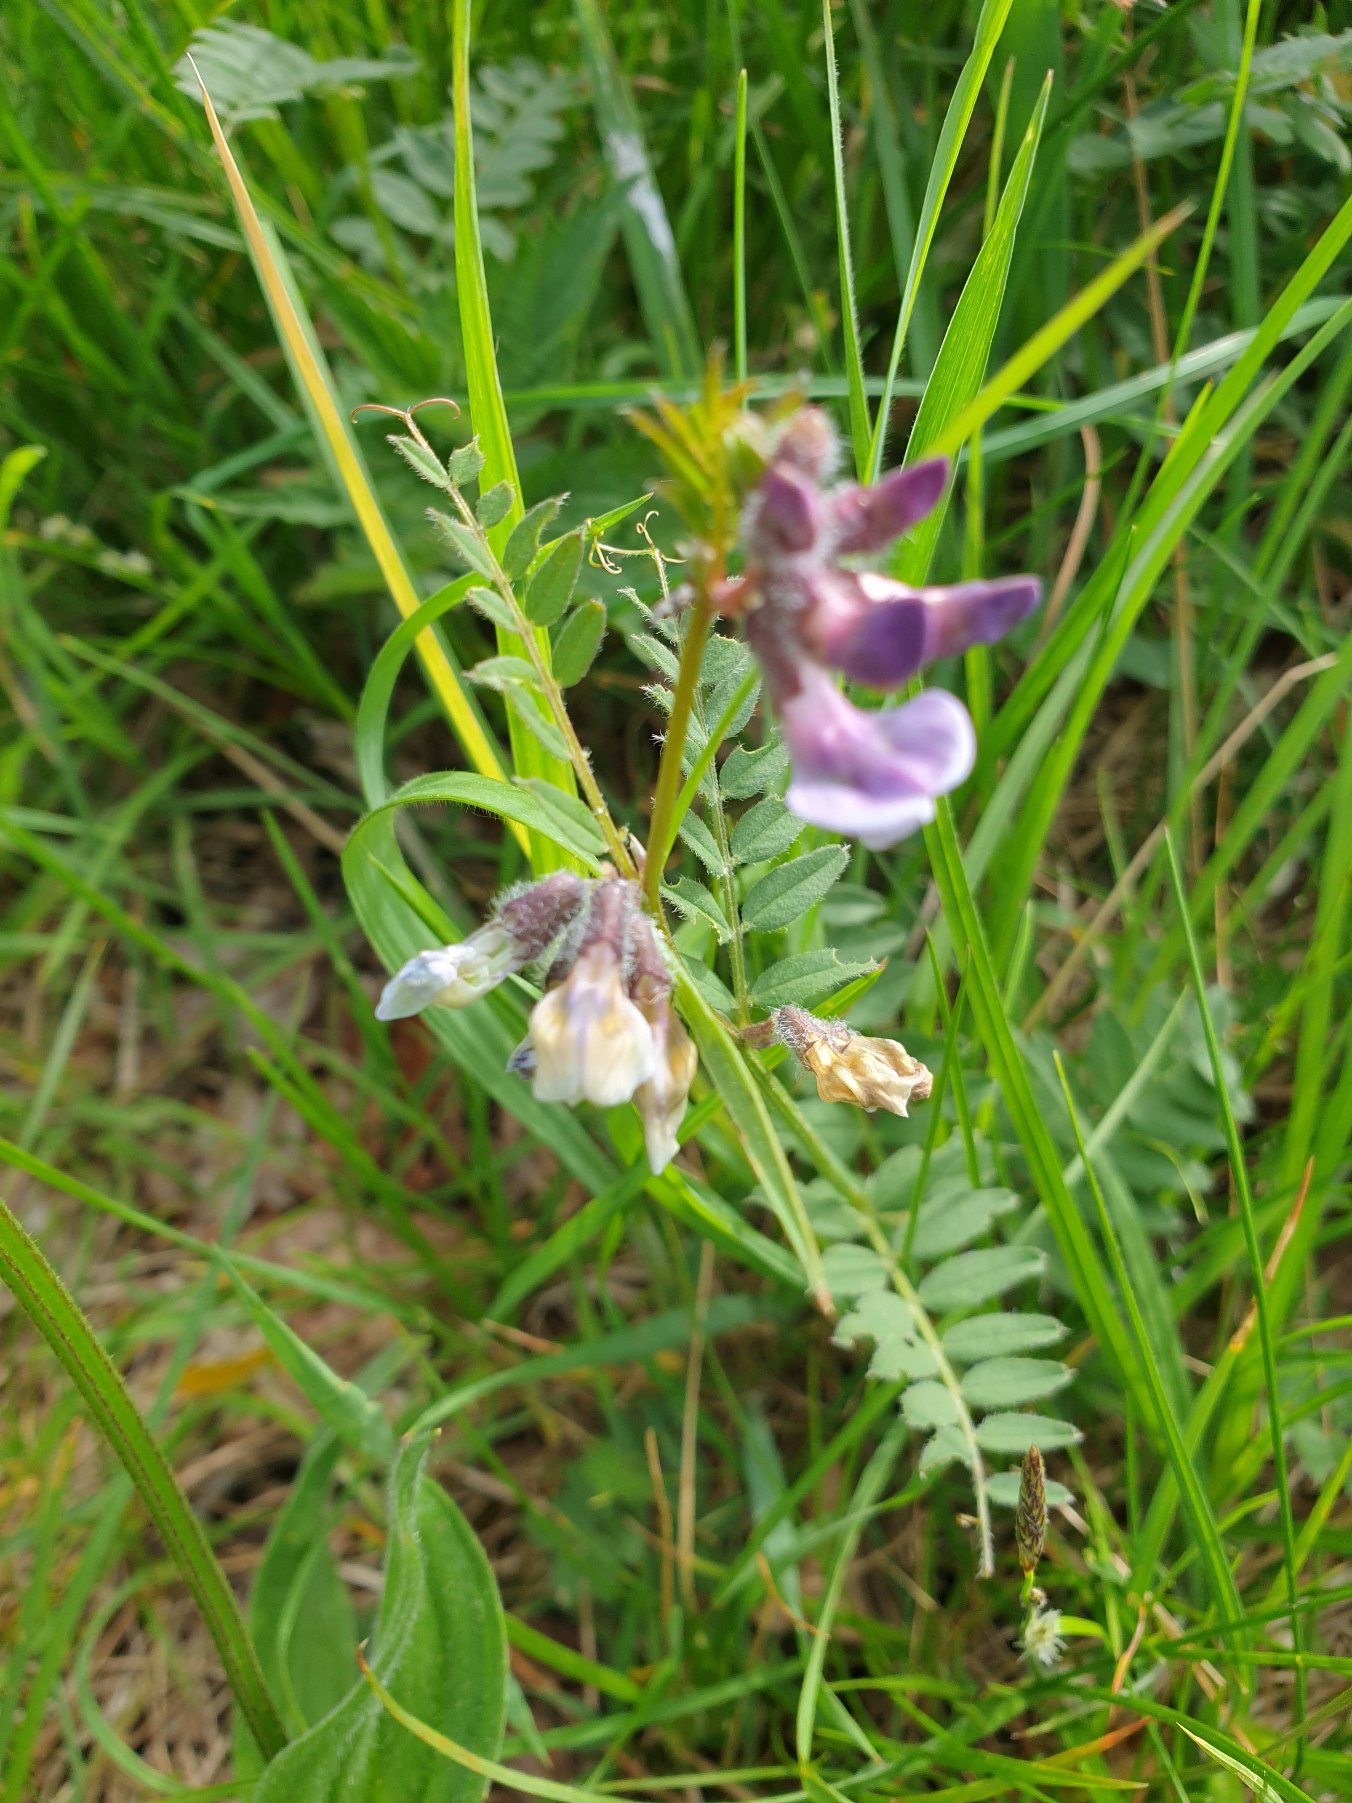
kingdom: Plantae
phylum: Tracheophyta
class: Magnoliopsida
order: Fabales
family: Fabaceae
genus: Vicia
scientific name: Vicia sepium
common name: Gærde-vikke
